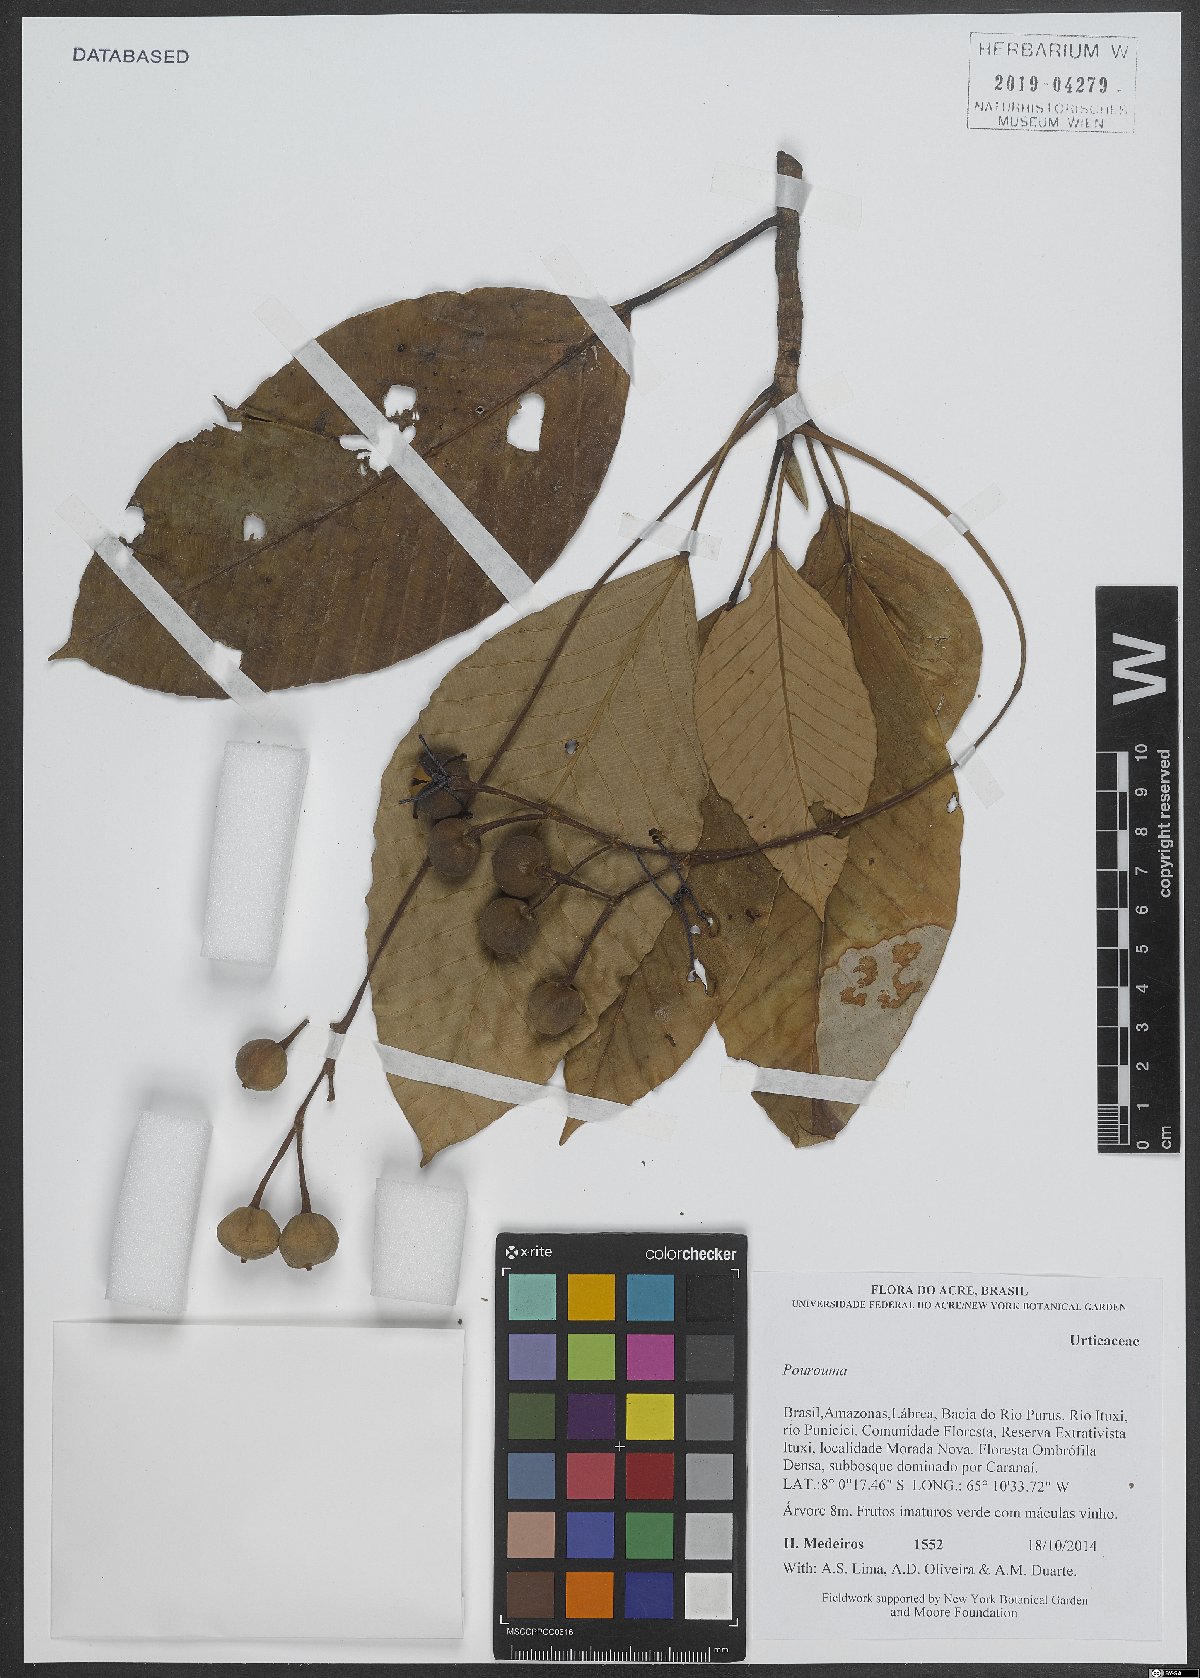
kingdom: Plantae
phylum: Tracheophyta
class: Magnoliopsida
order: Rosales
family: Urticaceae
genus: Pourouma
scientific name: Pourouma
